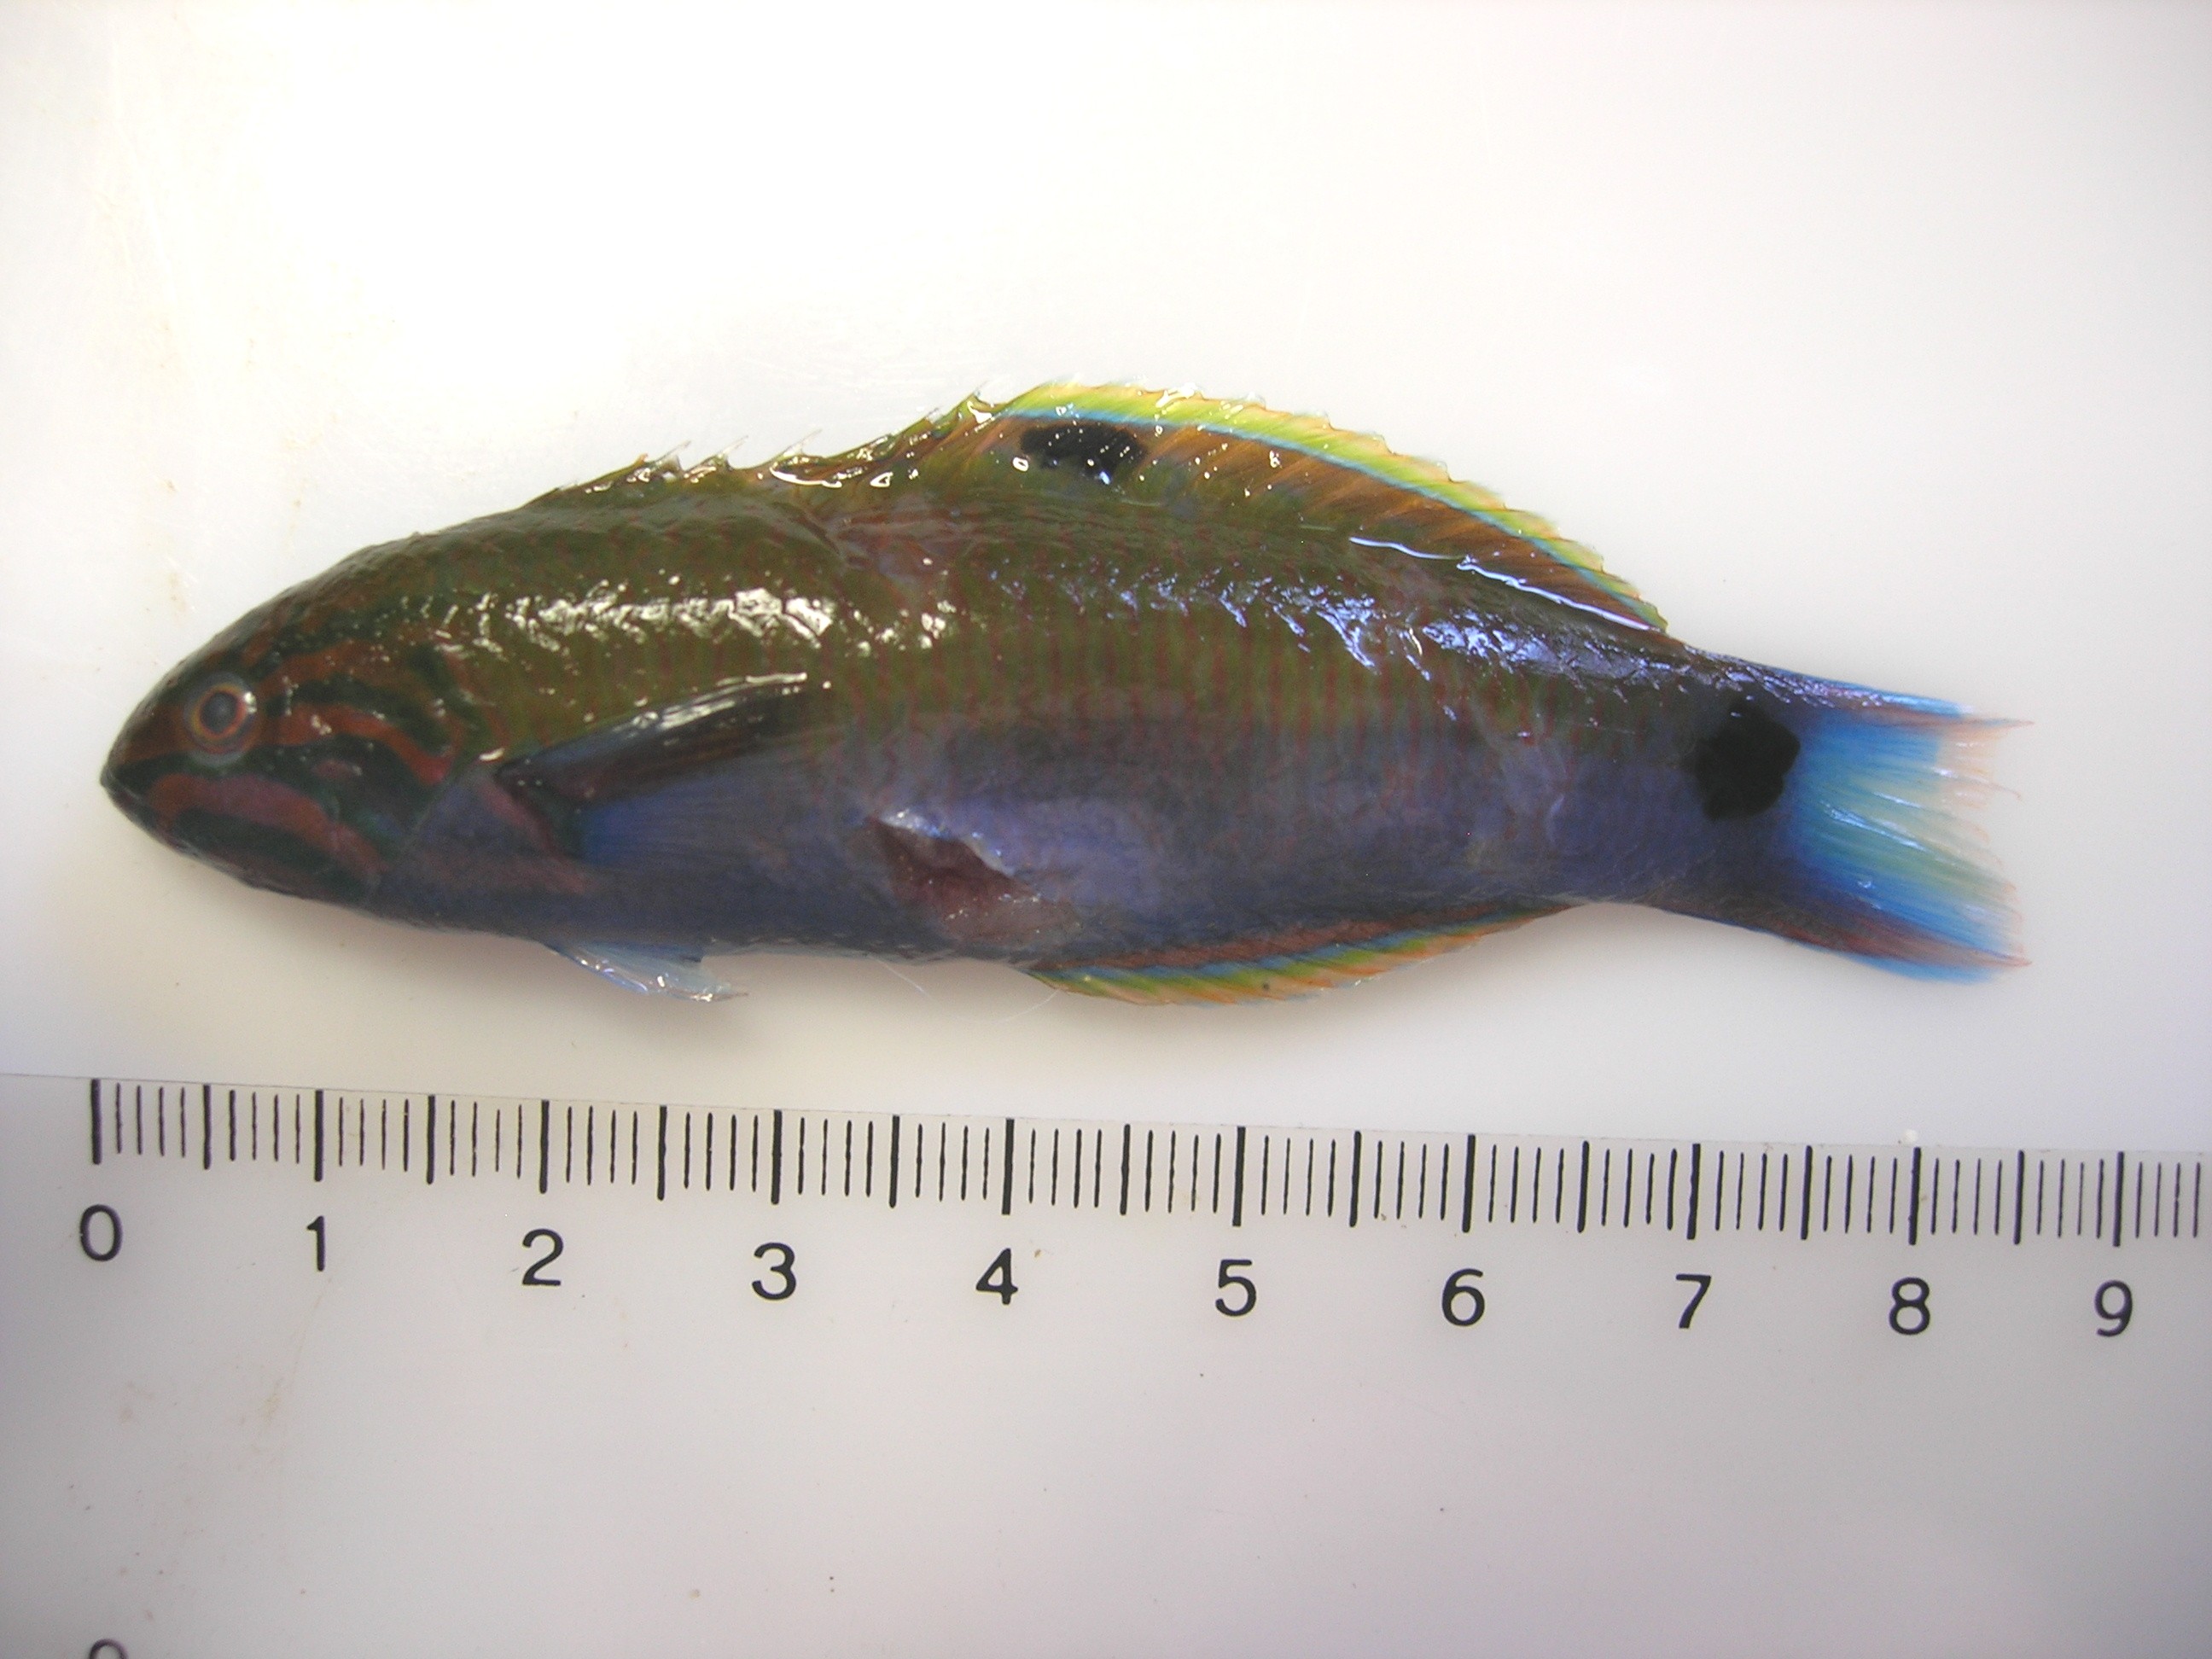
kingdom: Animalia
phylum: Chordata
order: Perciformes
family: Labridae
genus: Thalassoma
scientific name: Thalassoma lunare
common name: Blue wrasse
